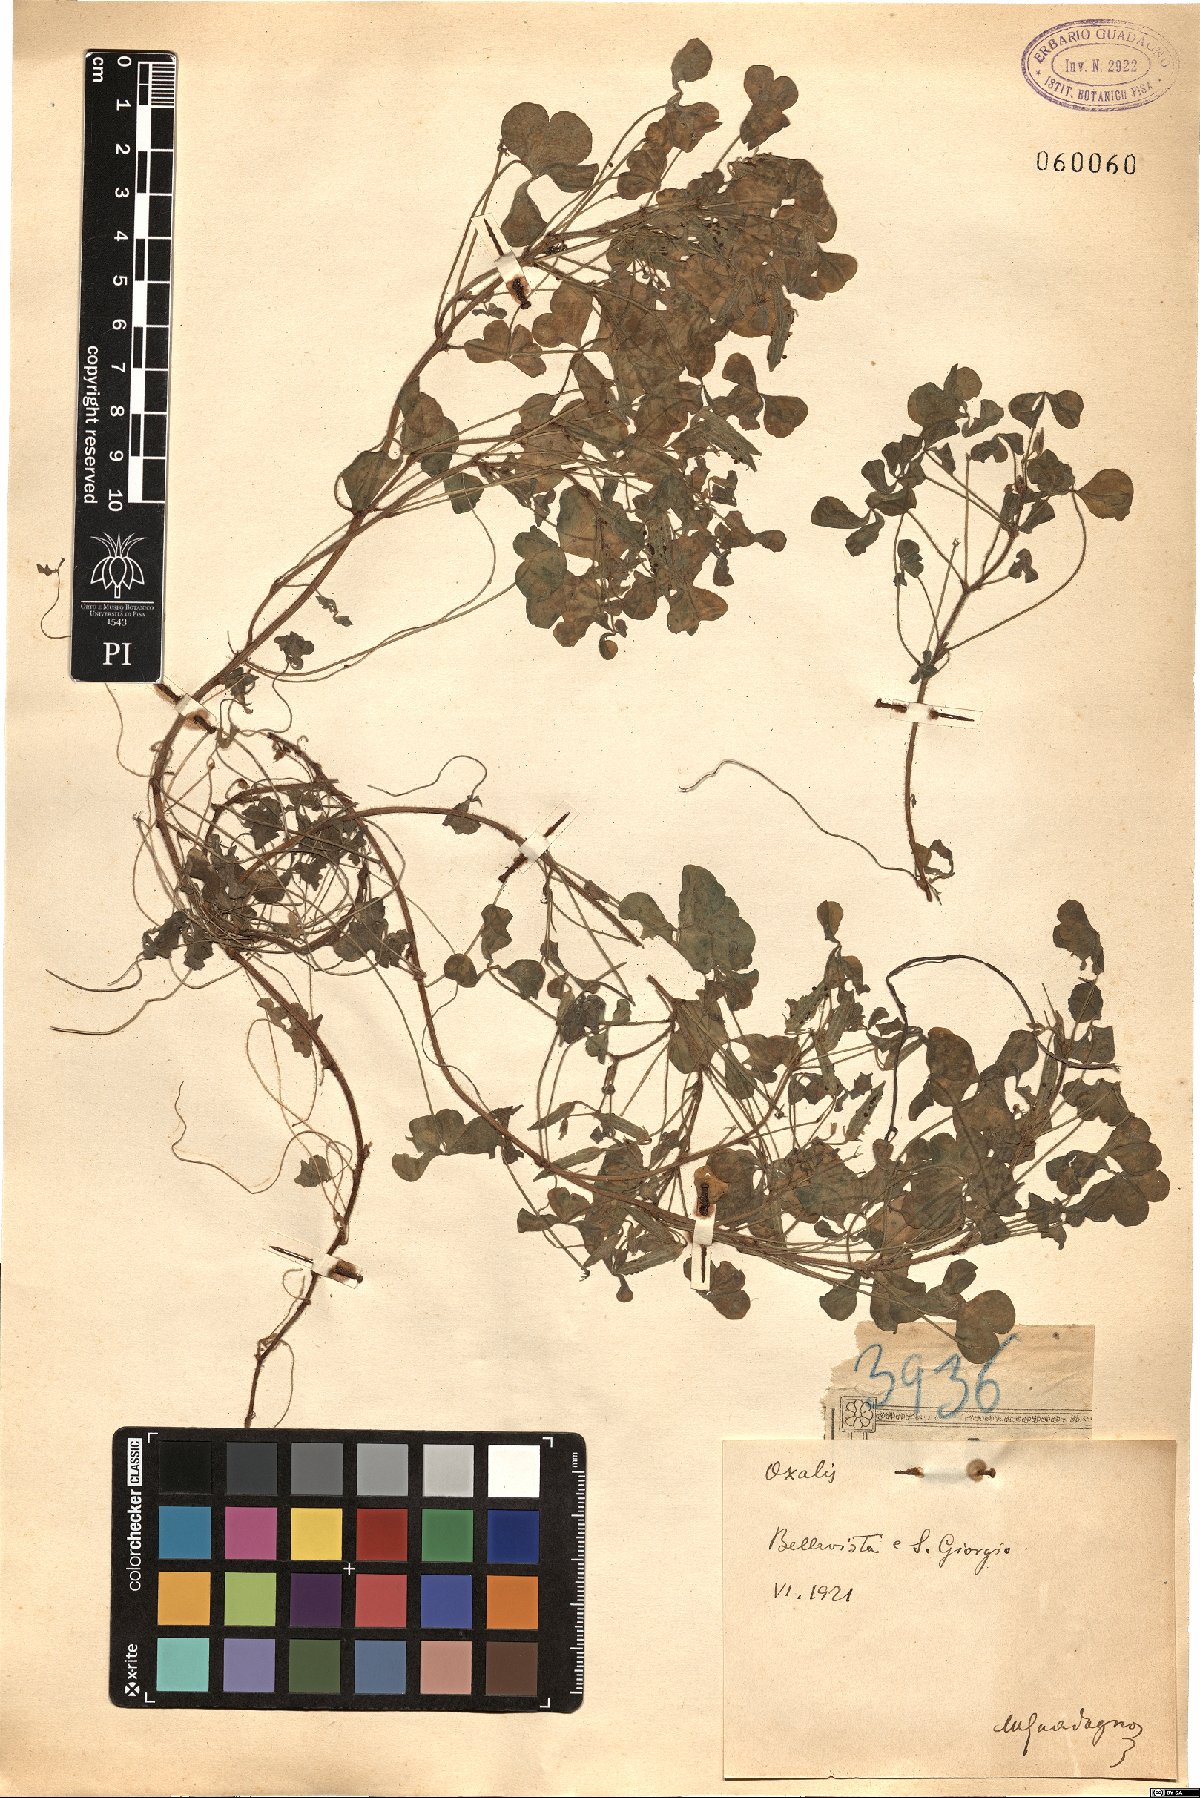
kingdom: Plantae
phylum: Tracheophyta
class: Magnoliopsida
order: Oxalidales
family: Oxalidaceae
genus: Oxalis
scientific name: Oxalis
